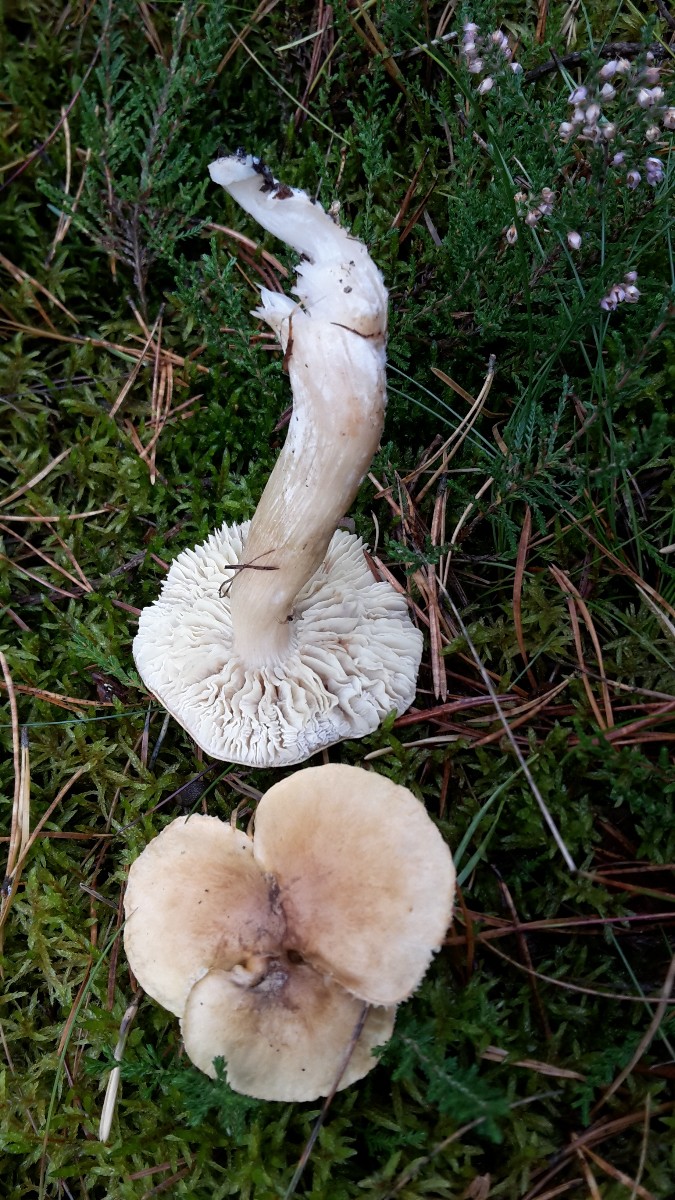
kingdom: Fungi
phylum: Basidiomycota
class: Agaricomycetes
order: Agaricales
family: Tricholomataceae
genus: Tricholoma
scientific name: Tricholoma aestuans
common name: kegle-ridderhat
